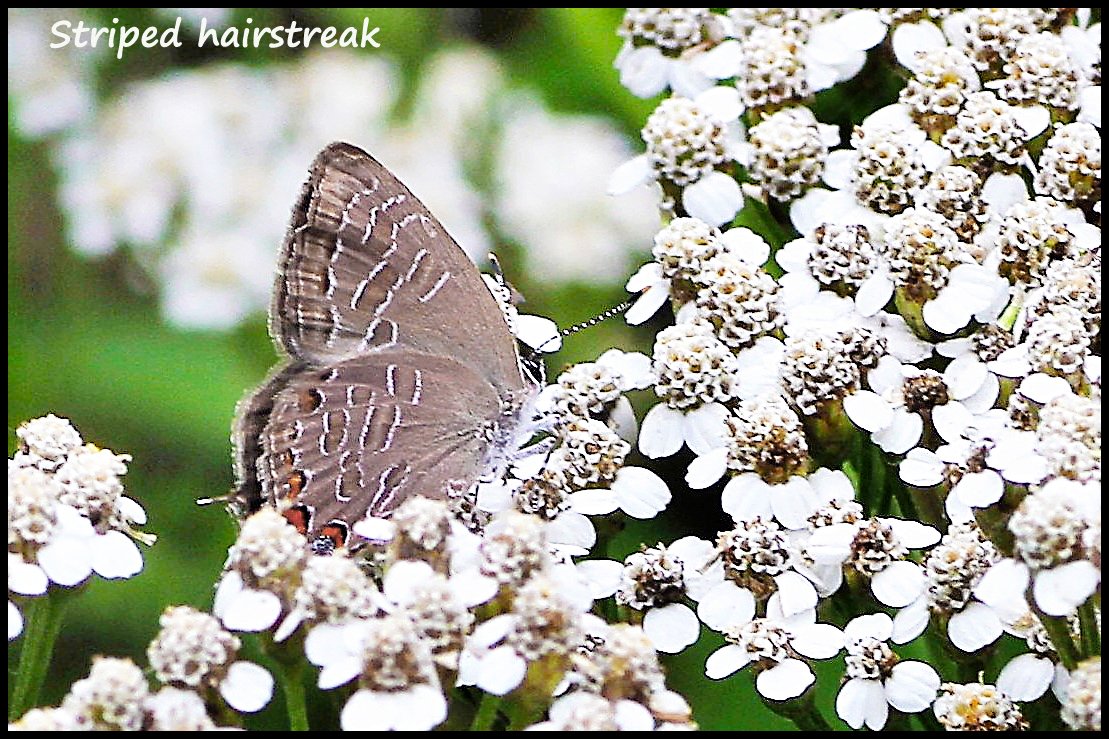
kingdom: Animalia
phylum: Arthropoda
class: Insecta
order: Lepidoptera
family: Lycaenidae
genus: Satyrium
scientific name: Satyrium liparops
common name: Striped Hairstreak
